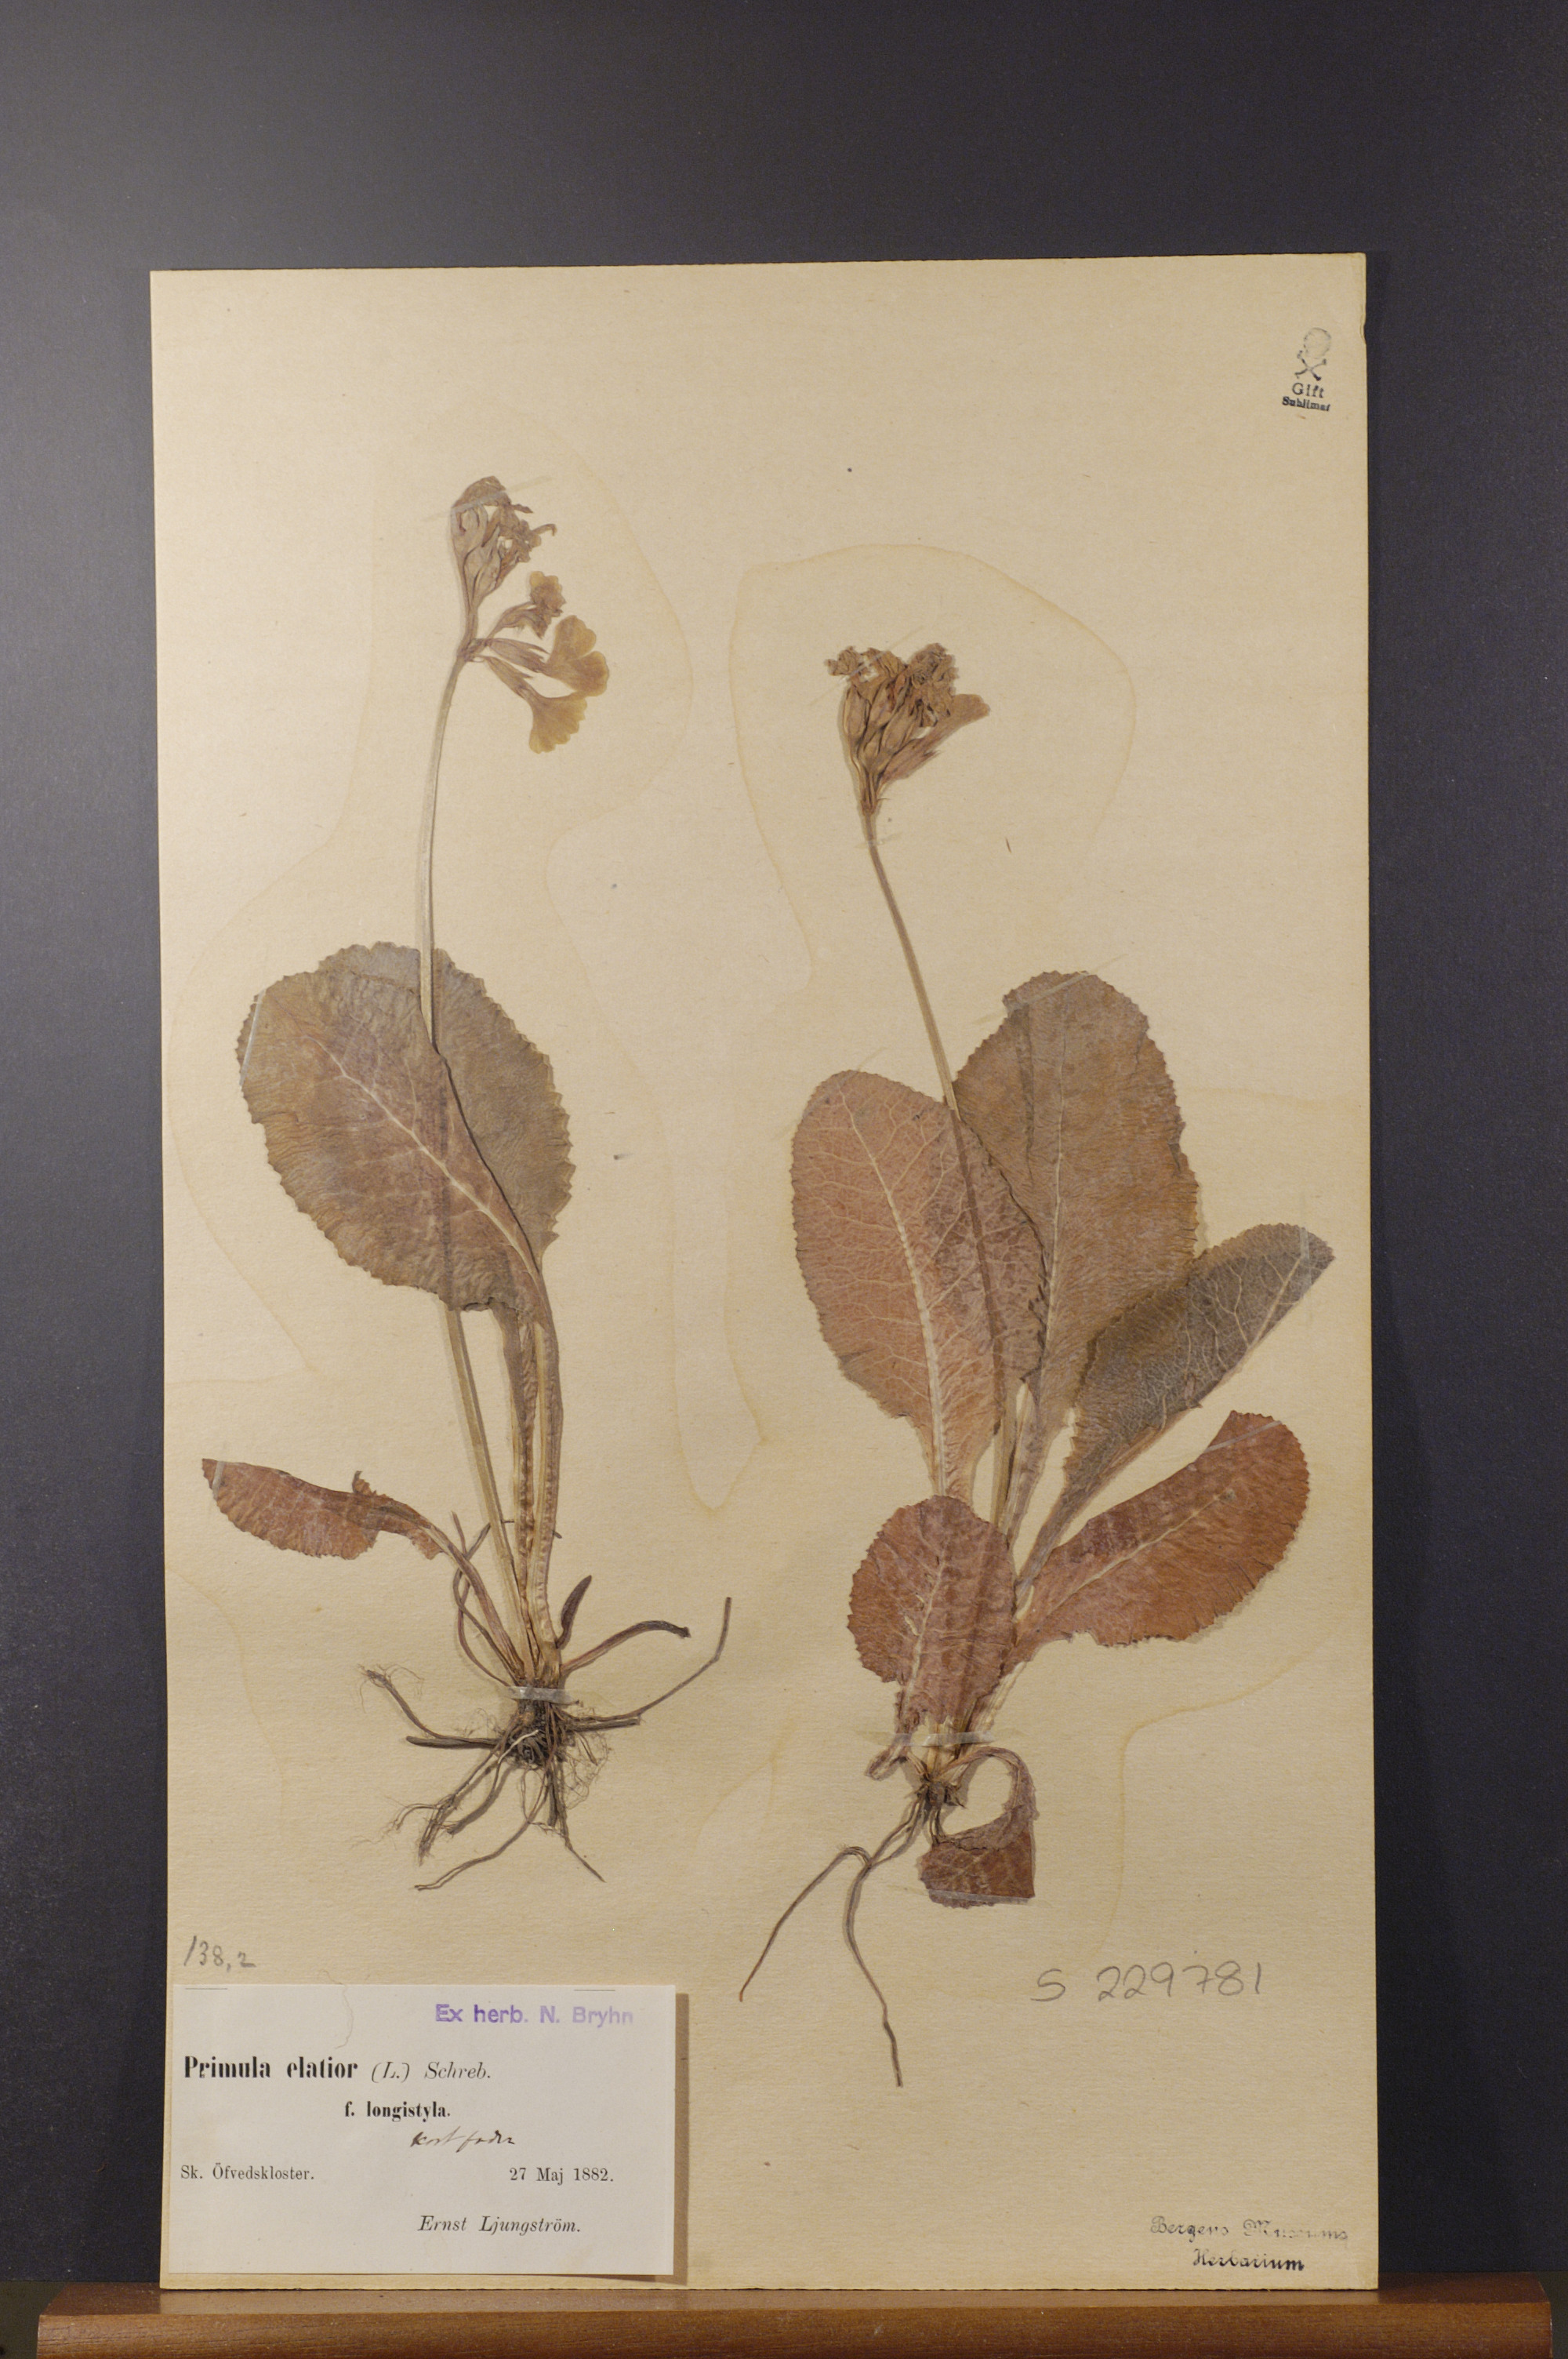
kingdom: Plantae
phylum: Tracheophyta
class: Magnoliopsida
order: Ericales
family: Primulaceae
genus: Primula
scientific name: Primula elatior
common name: Oxlip
